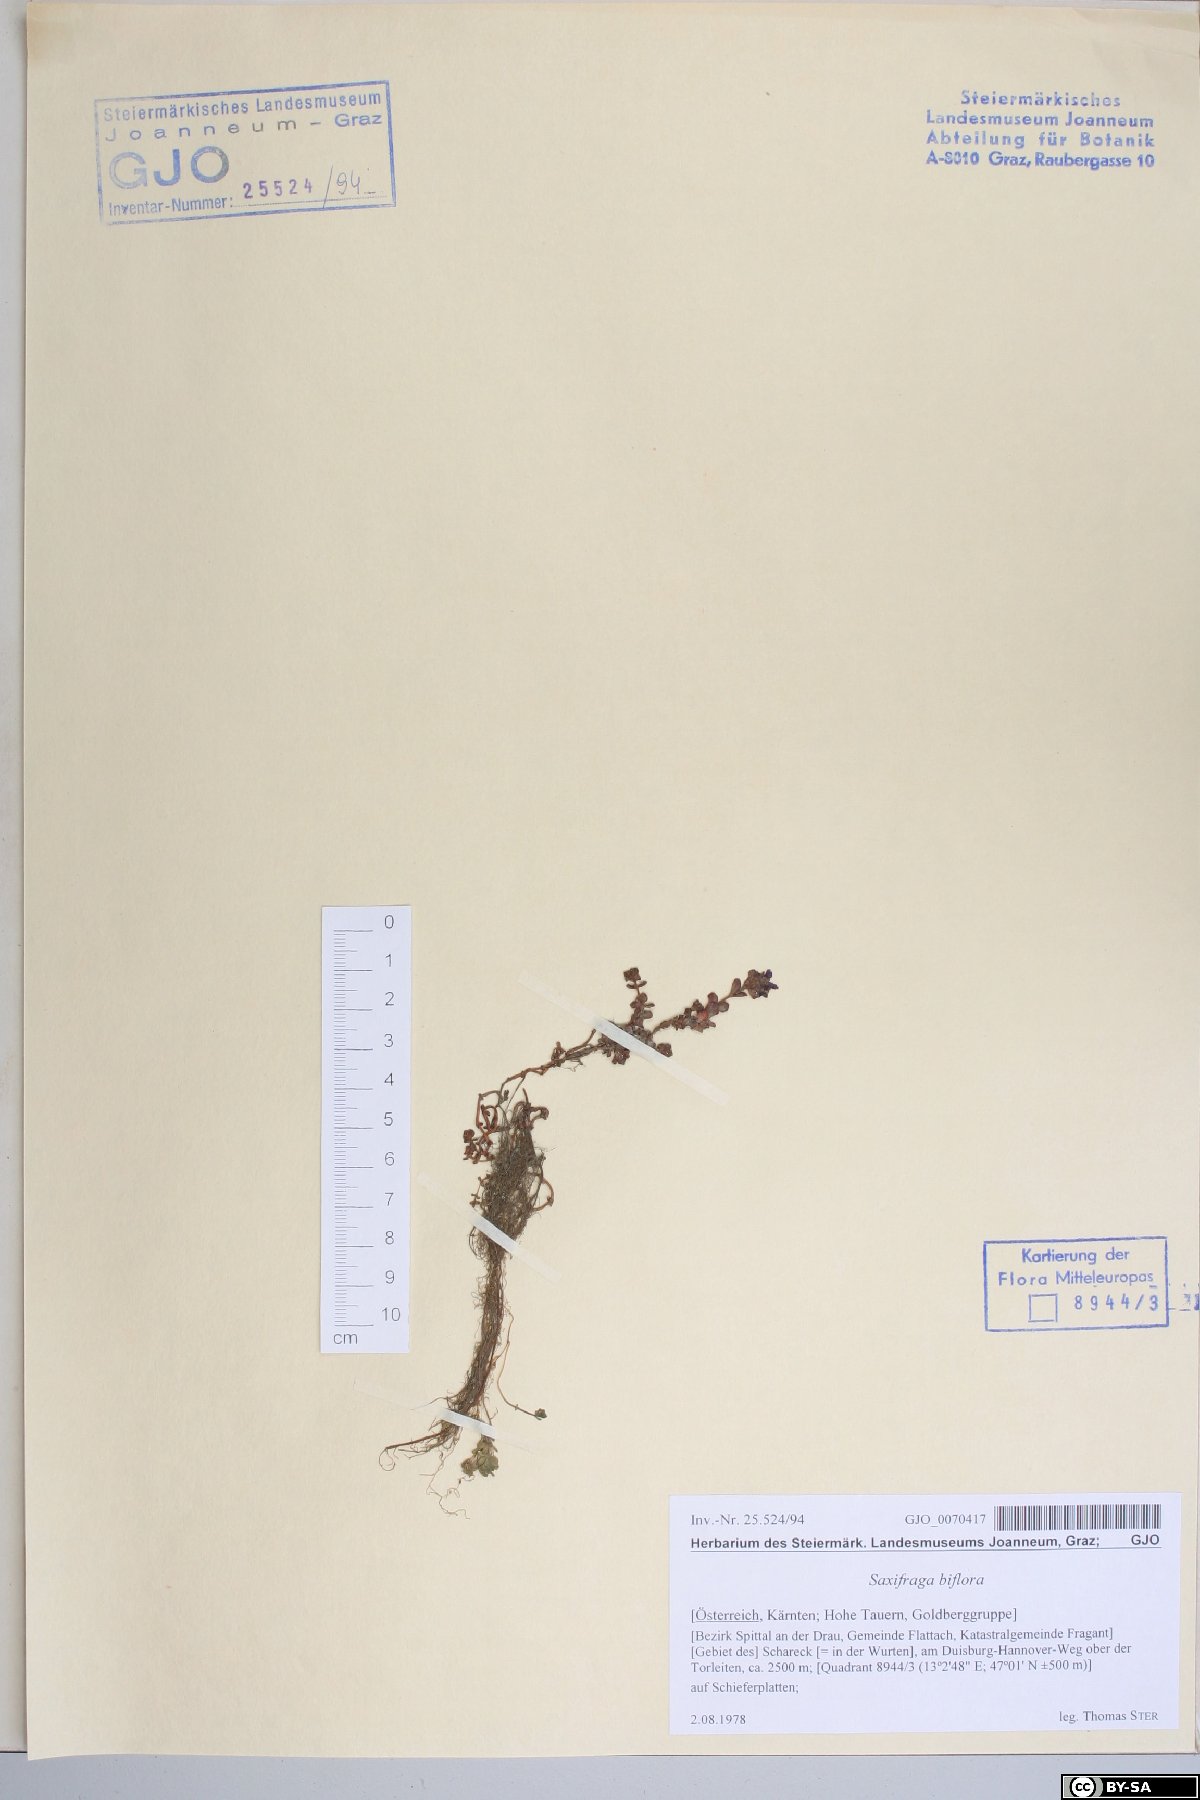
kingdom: Plantae
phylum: Tracheophyta
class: Magnoliopsida
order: Saxifragales
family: Saxifragaceae
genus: Saxifraga
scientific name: Saxifraga biflora
